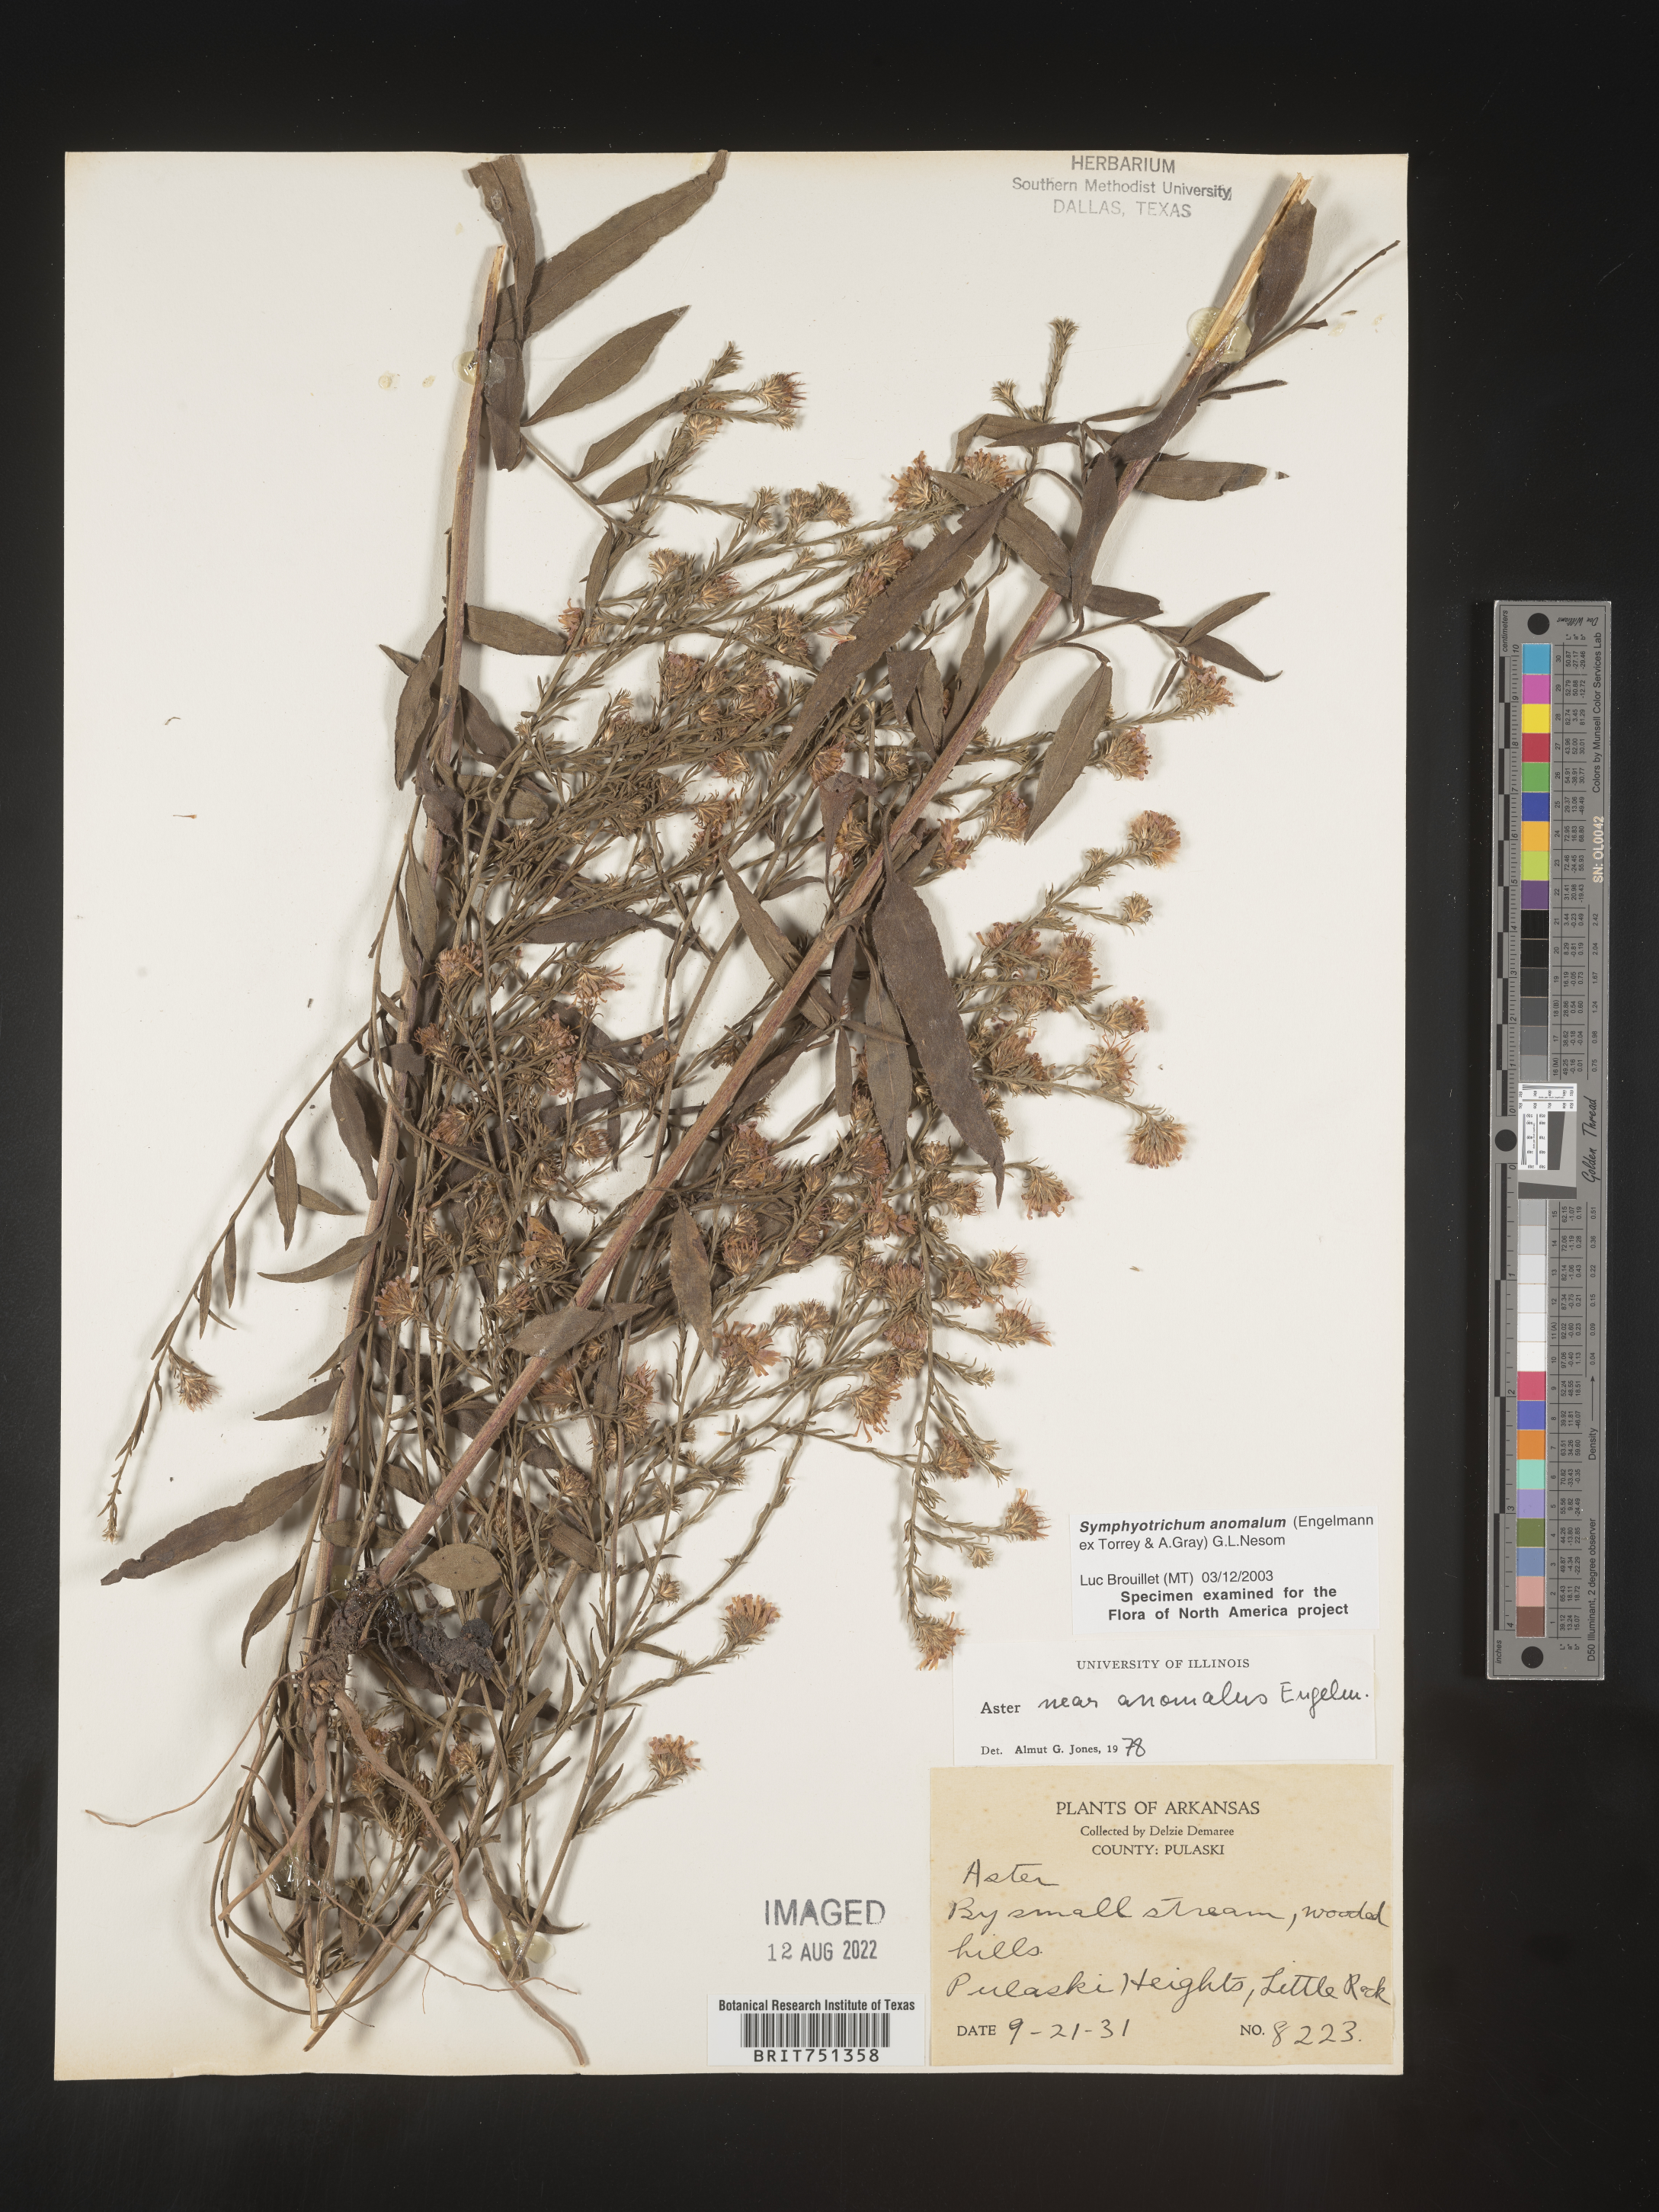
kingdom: Plantae
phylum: Tracheophyta
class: Magnoliopsida
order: Asterales
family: Asteraceae
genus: Symphyotrichum
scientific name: Symphyotrichum anomalum
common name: Many-ray aster
